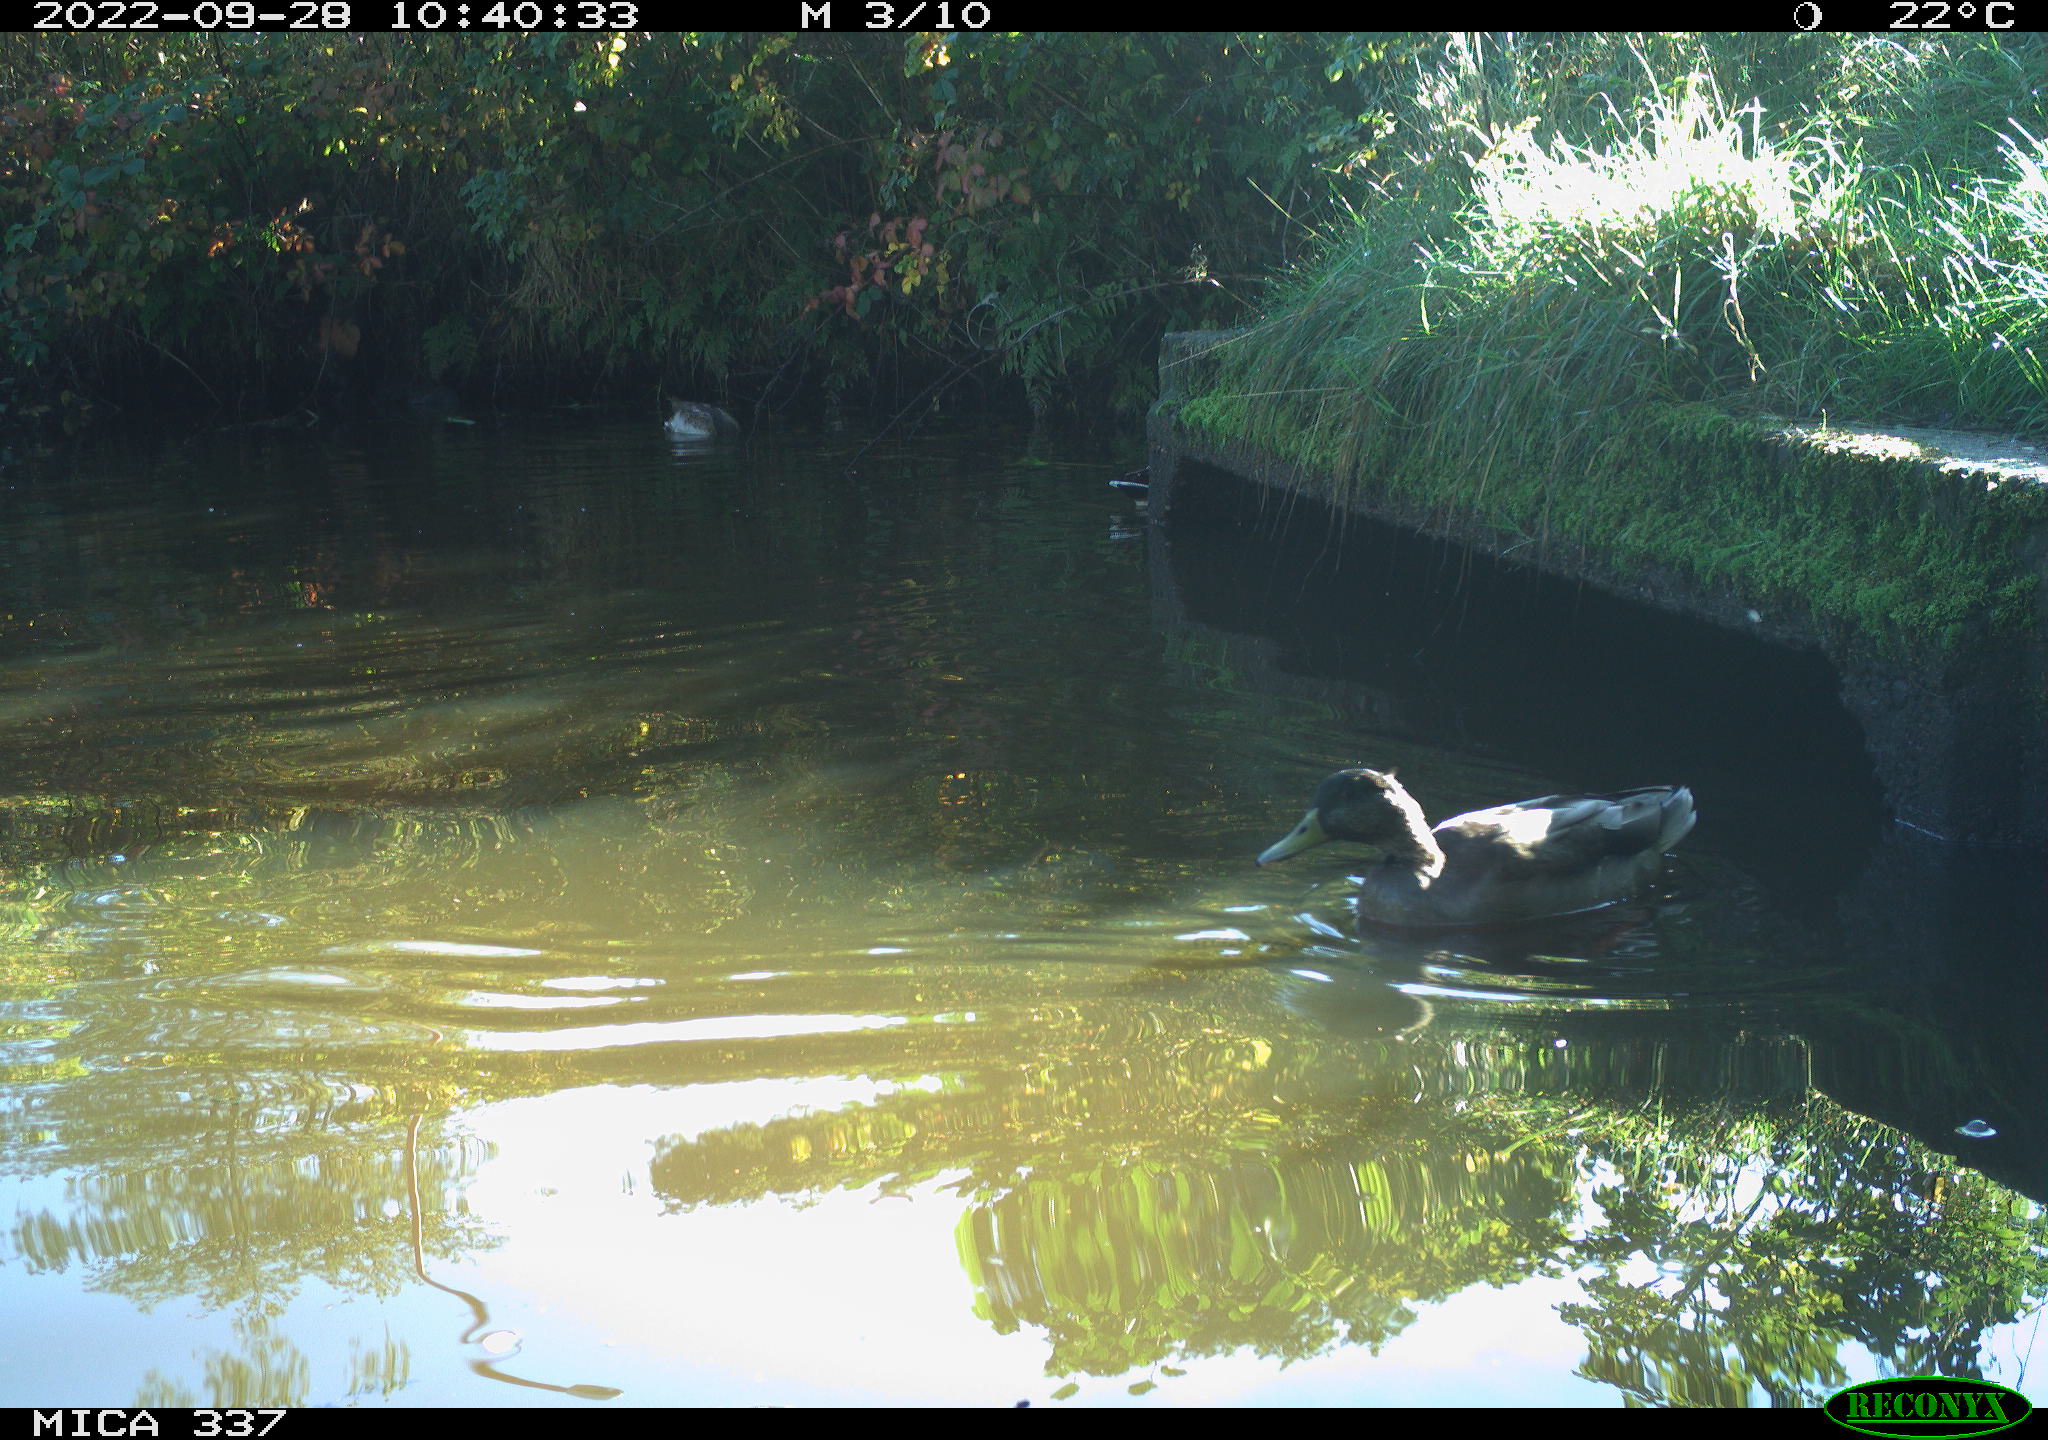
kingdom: Animalia
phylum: Chordata
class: Aves
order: Anseriformes
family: Anatidae
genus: Anas
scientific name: Anas platyrhynchos
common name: Mallard
